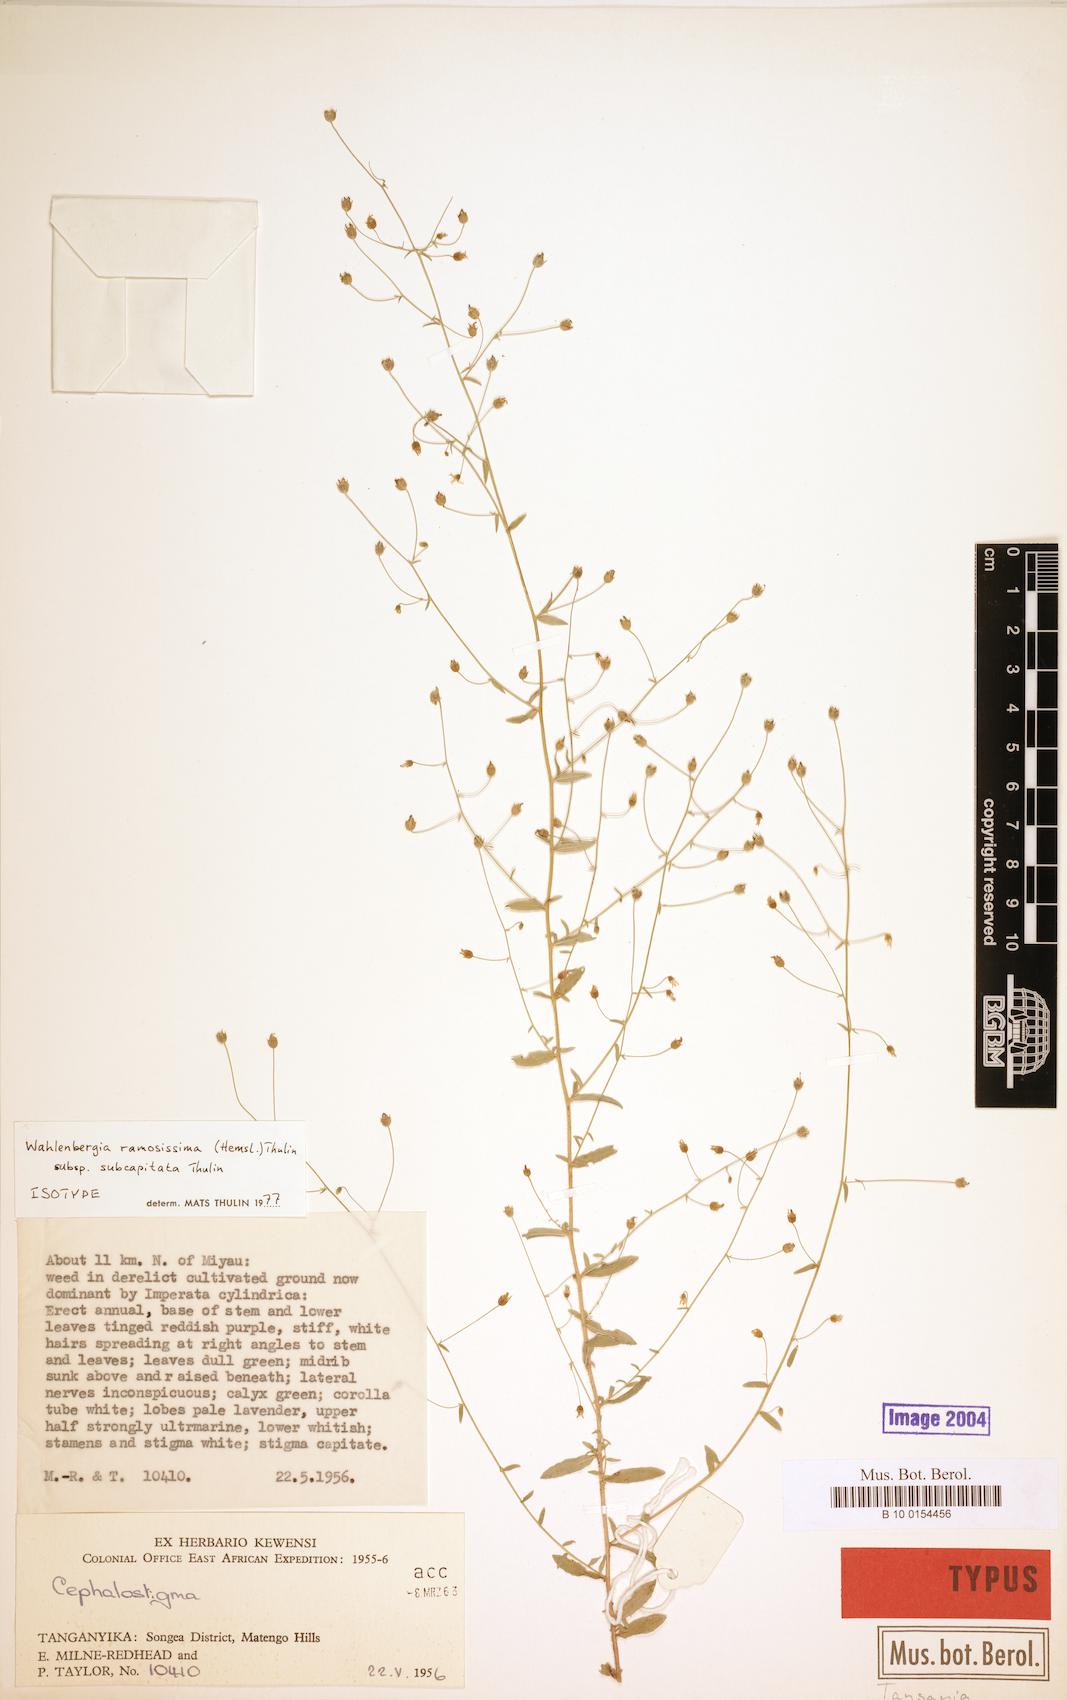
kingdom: Plantae
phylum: Tracheophyta
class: Magnoliopsida
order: Asterales
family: Campanulaceae
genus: Wahlenbergia
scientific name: Wahlenbergia ramosissima
